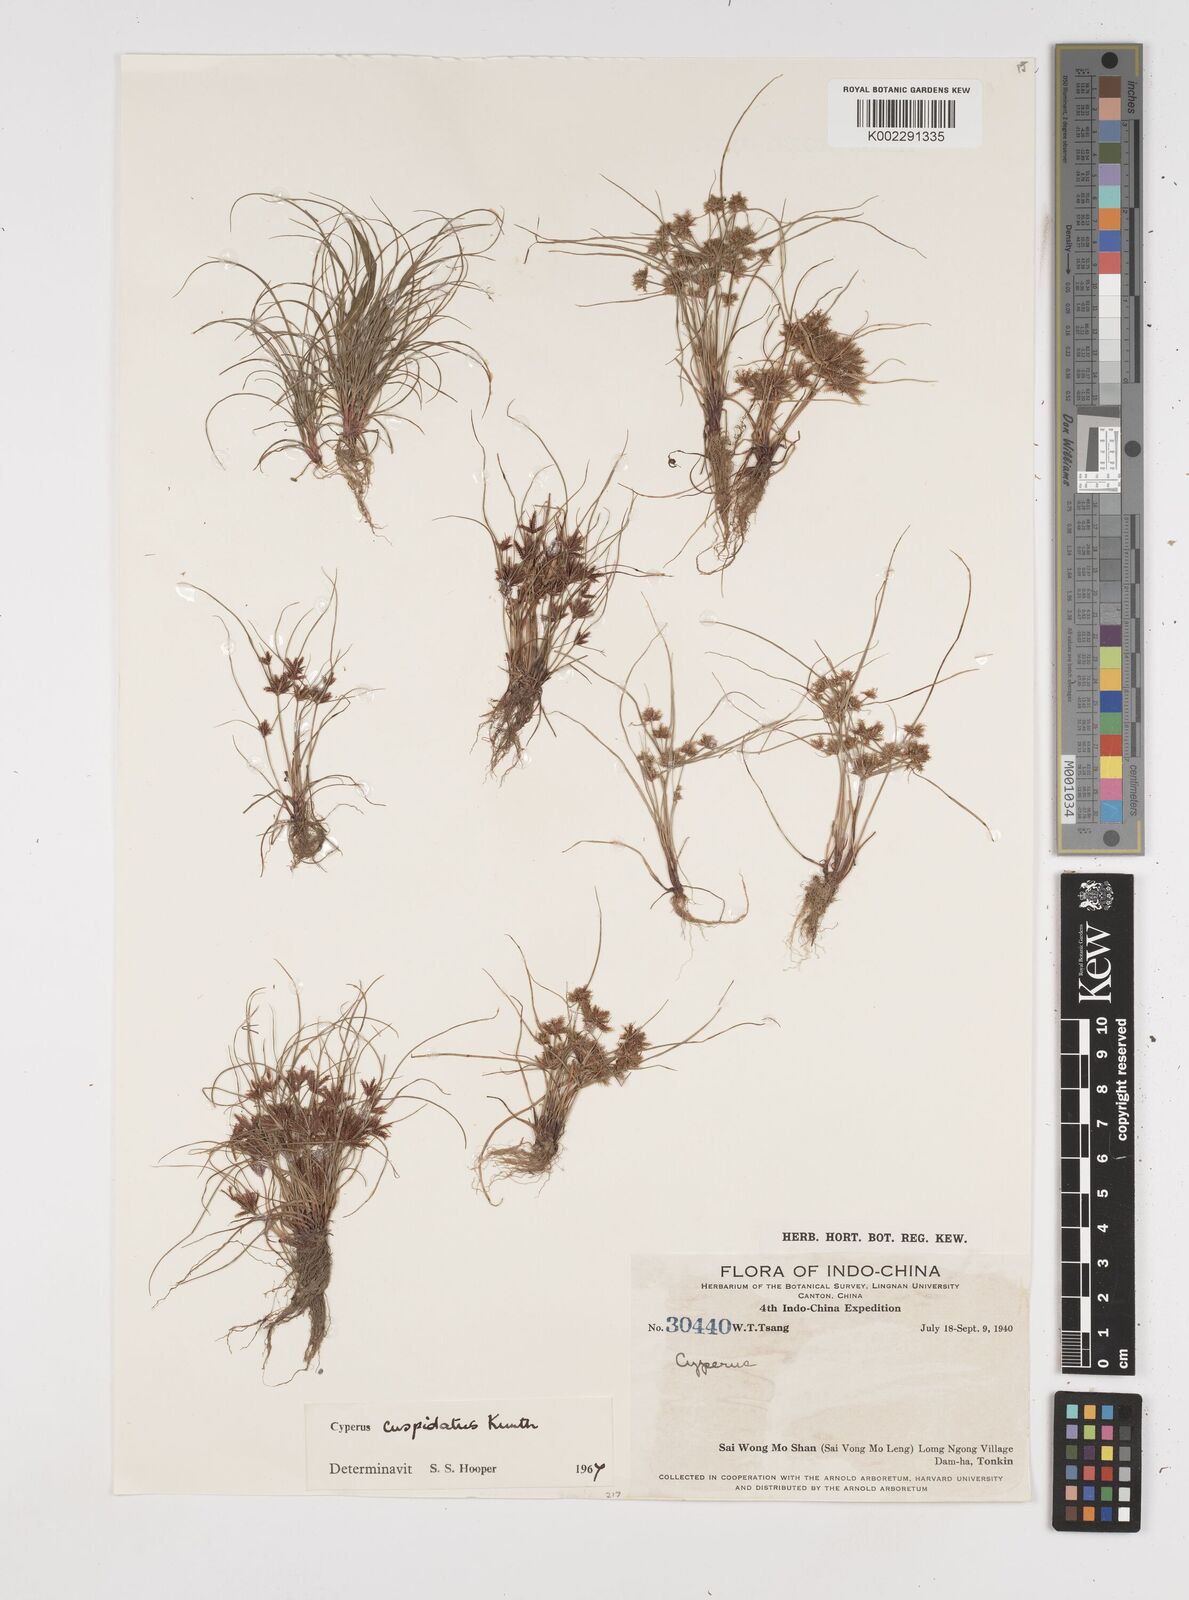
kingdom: Plantae
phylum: Tracheophyta
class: Liliopsida
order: Poales
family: Cyperaceae
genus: Cyperus
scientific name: Cyperus cuspidatus
